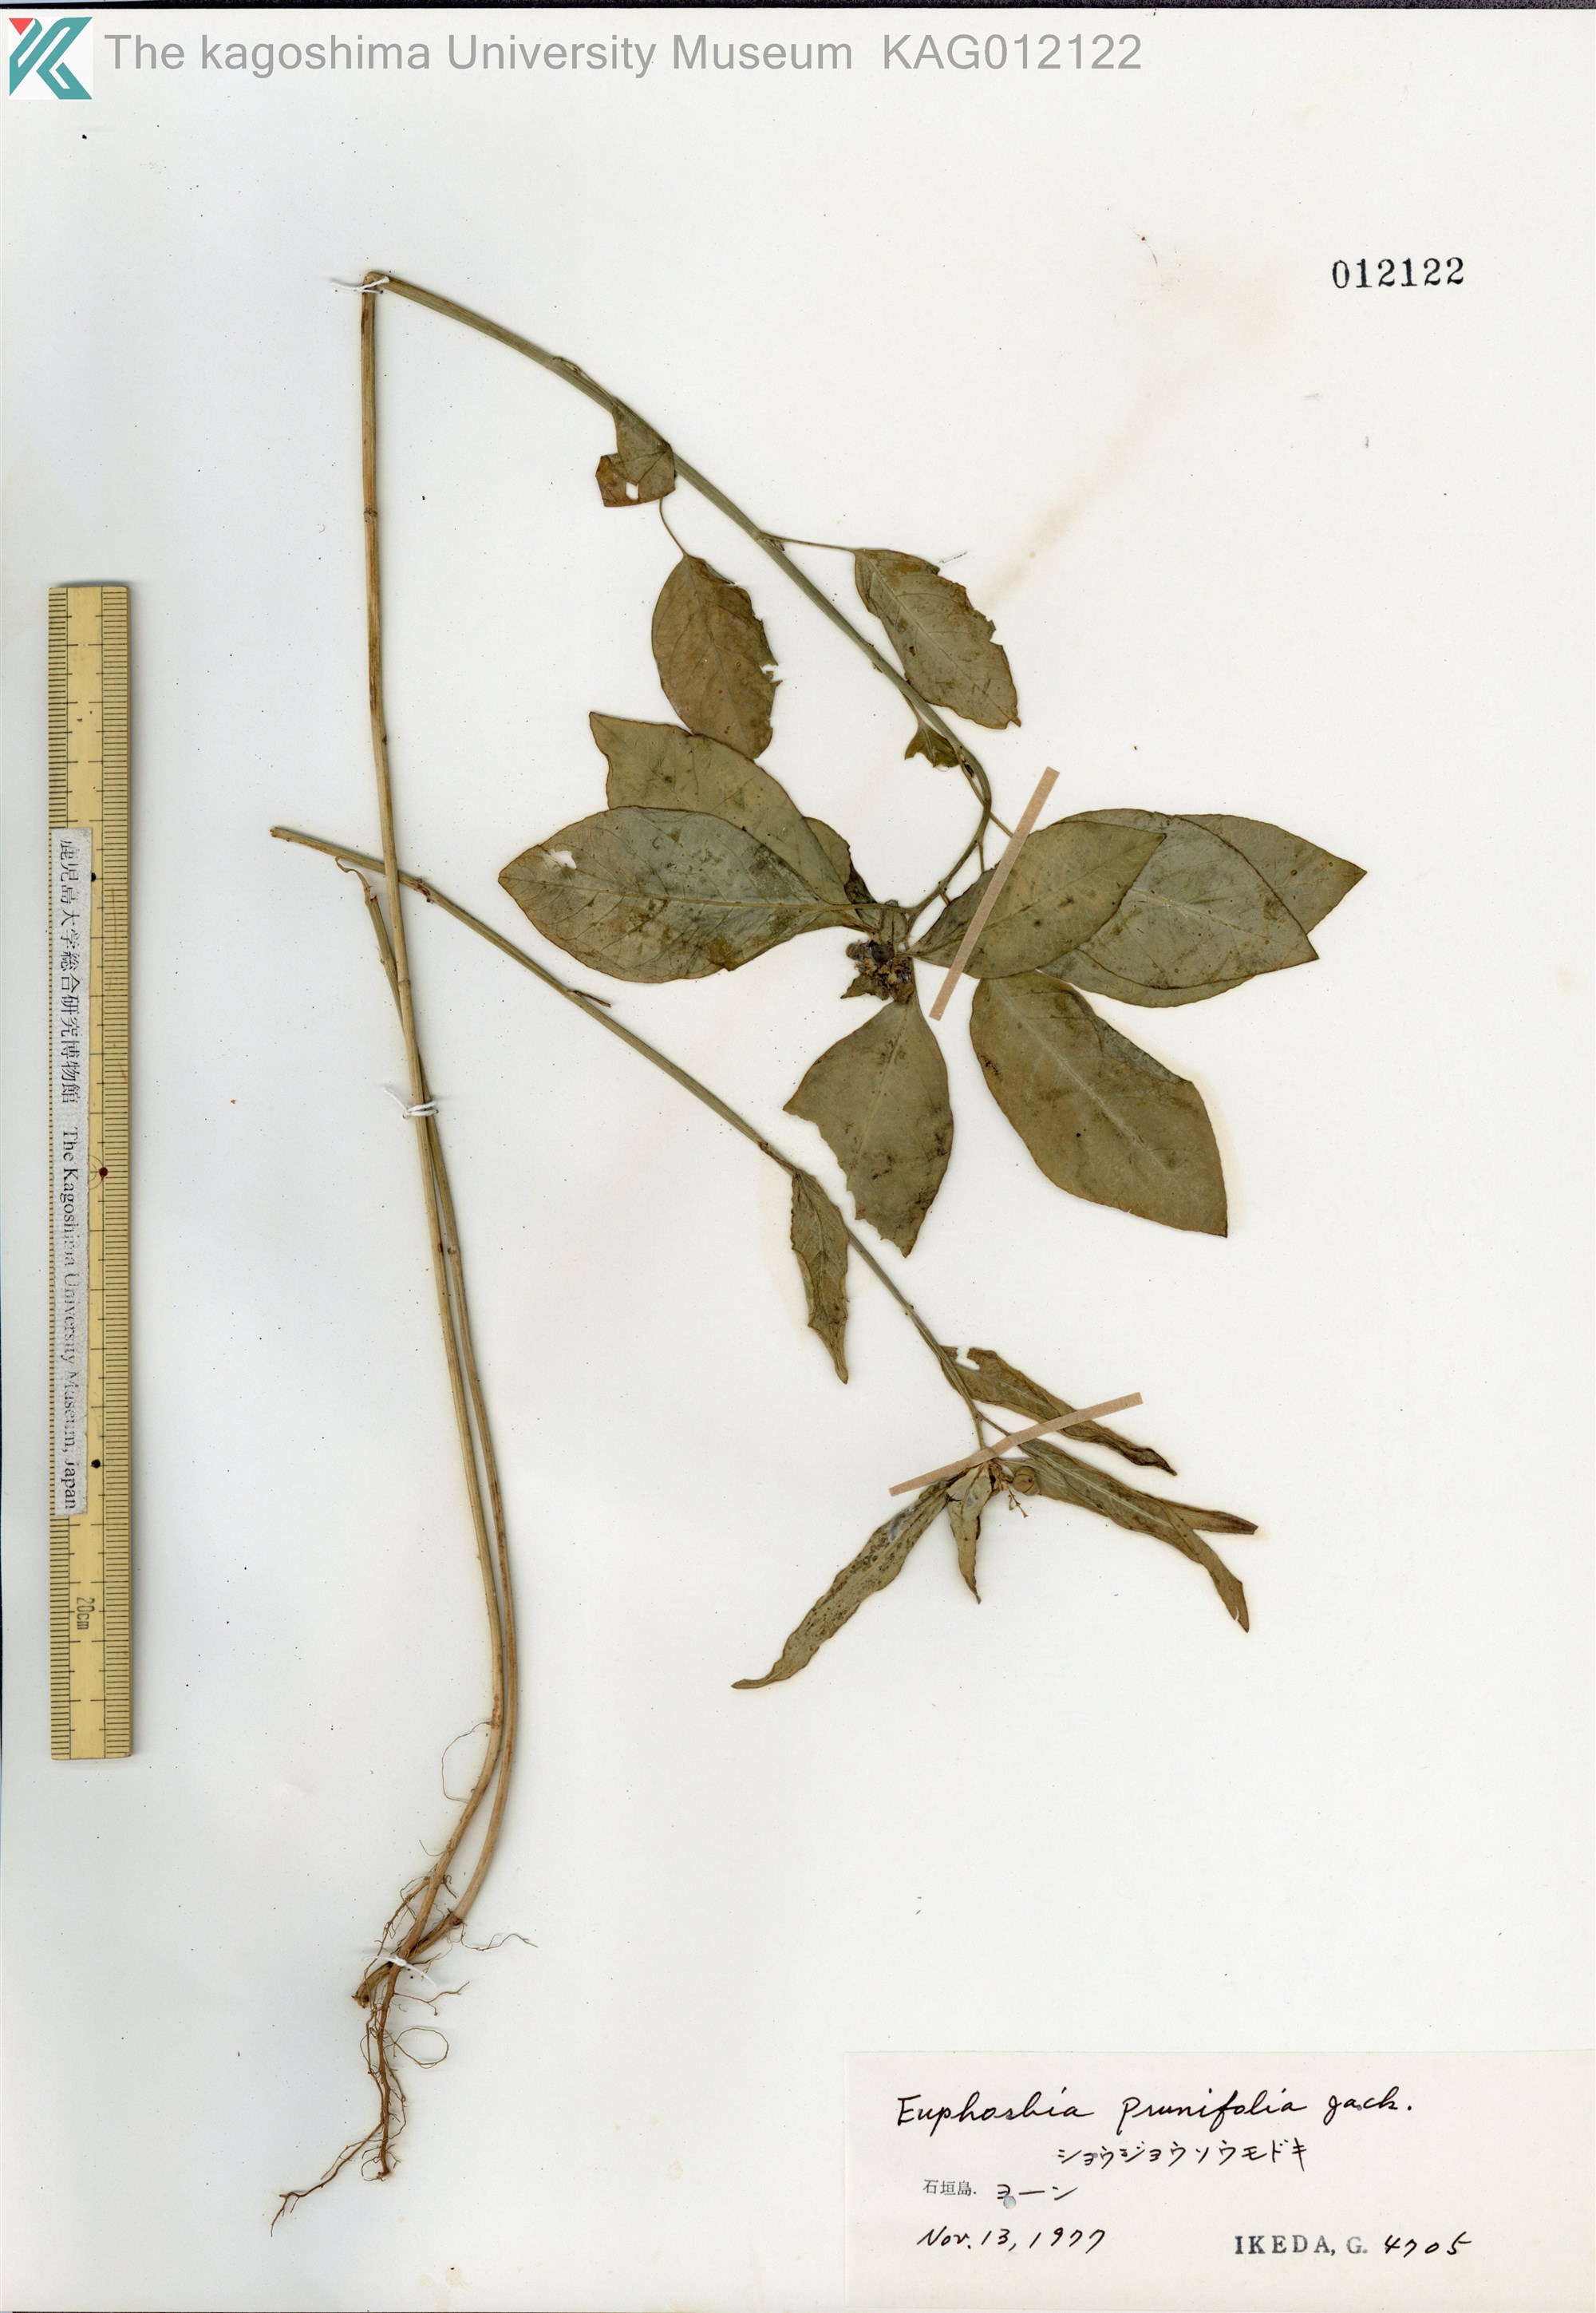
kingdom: Plantae
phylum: Tracheophyta
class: Magnoliopsida
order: Malpighiales
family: Euphorbiaceae
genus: Euphorbia
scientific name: Euphorbia heterophylla
